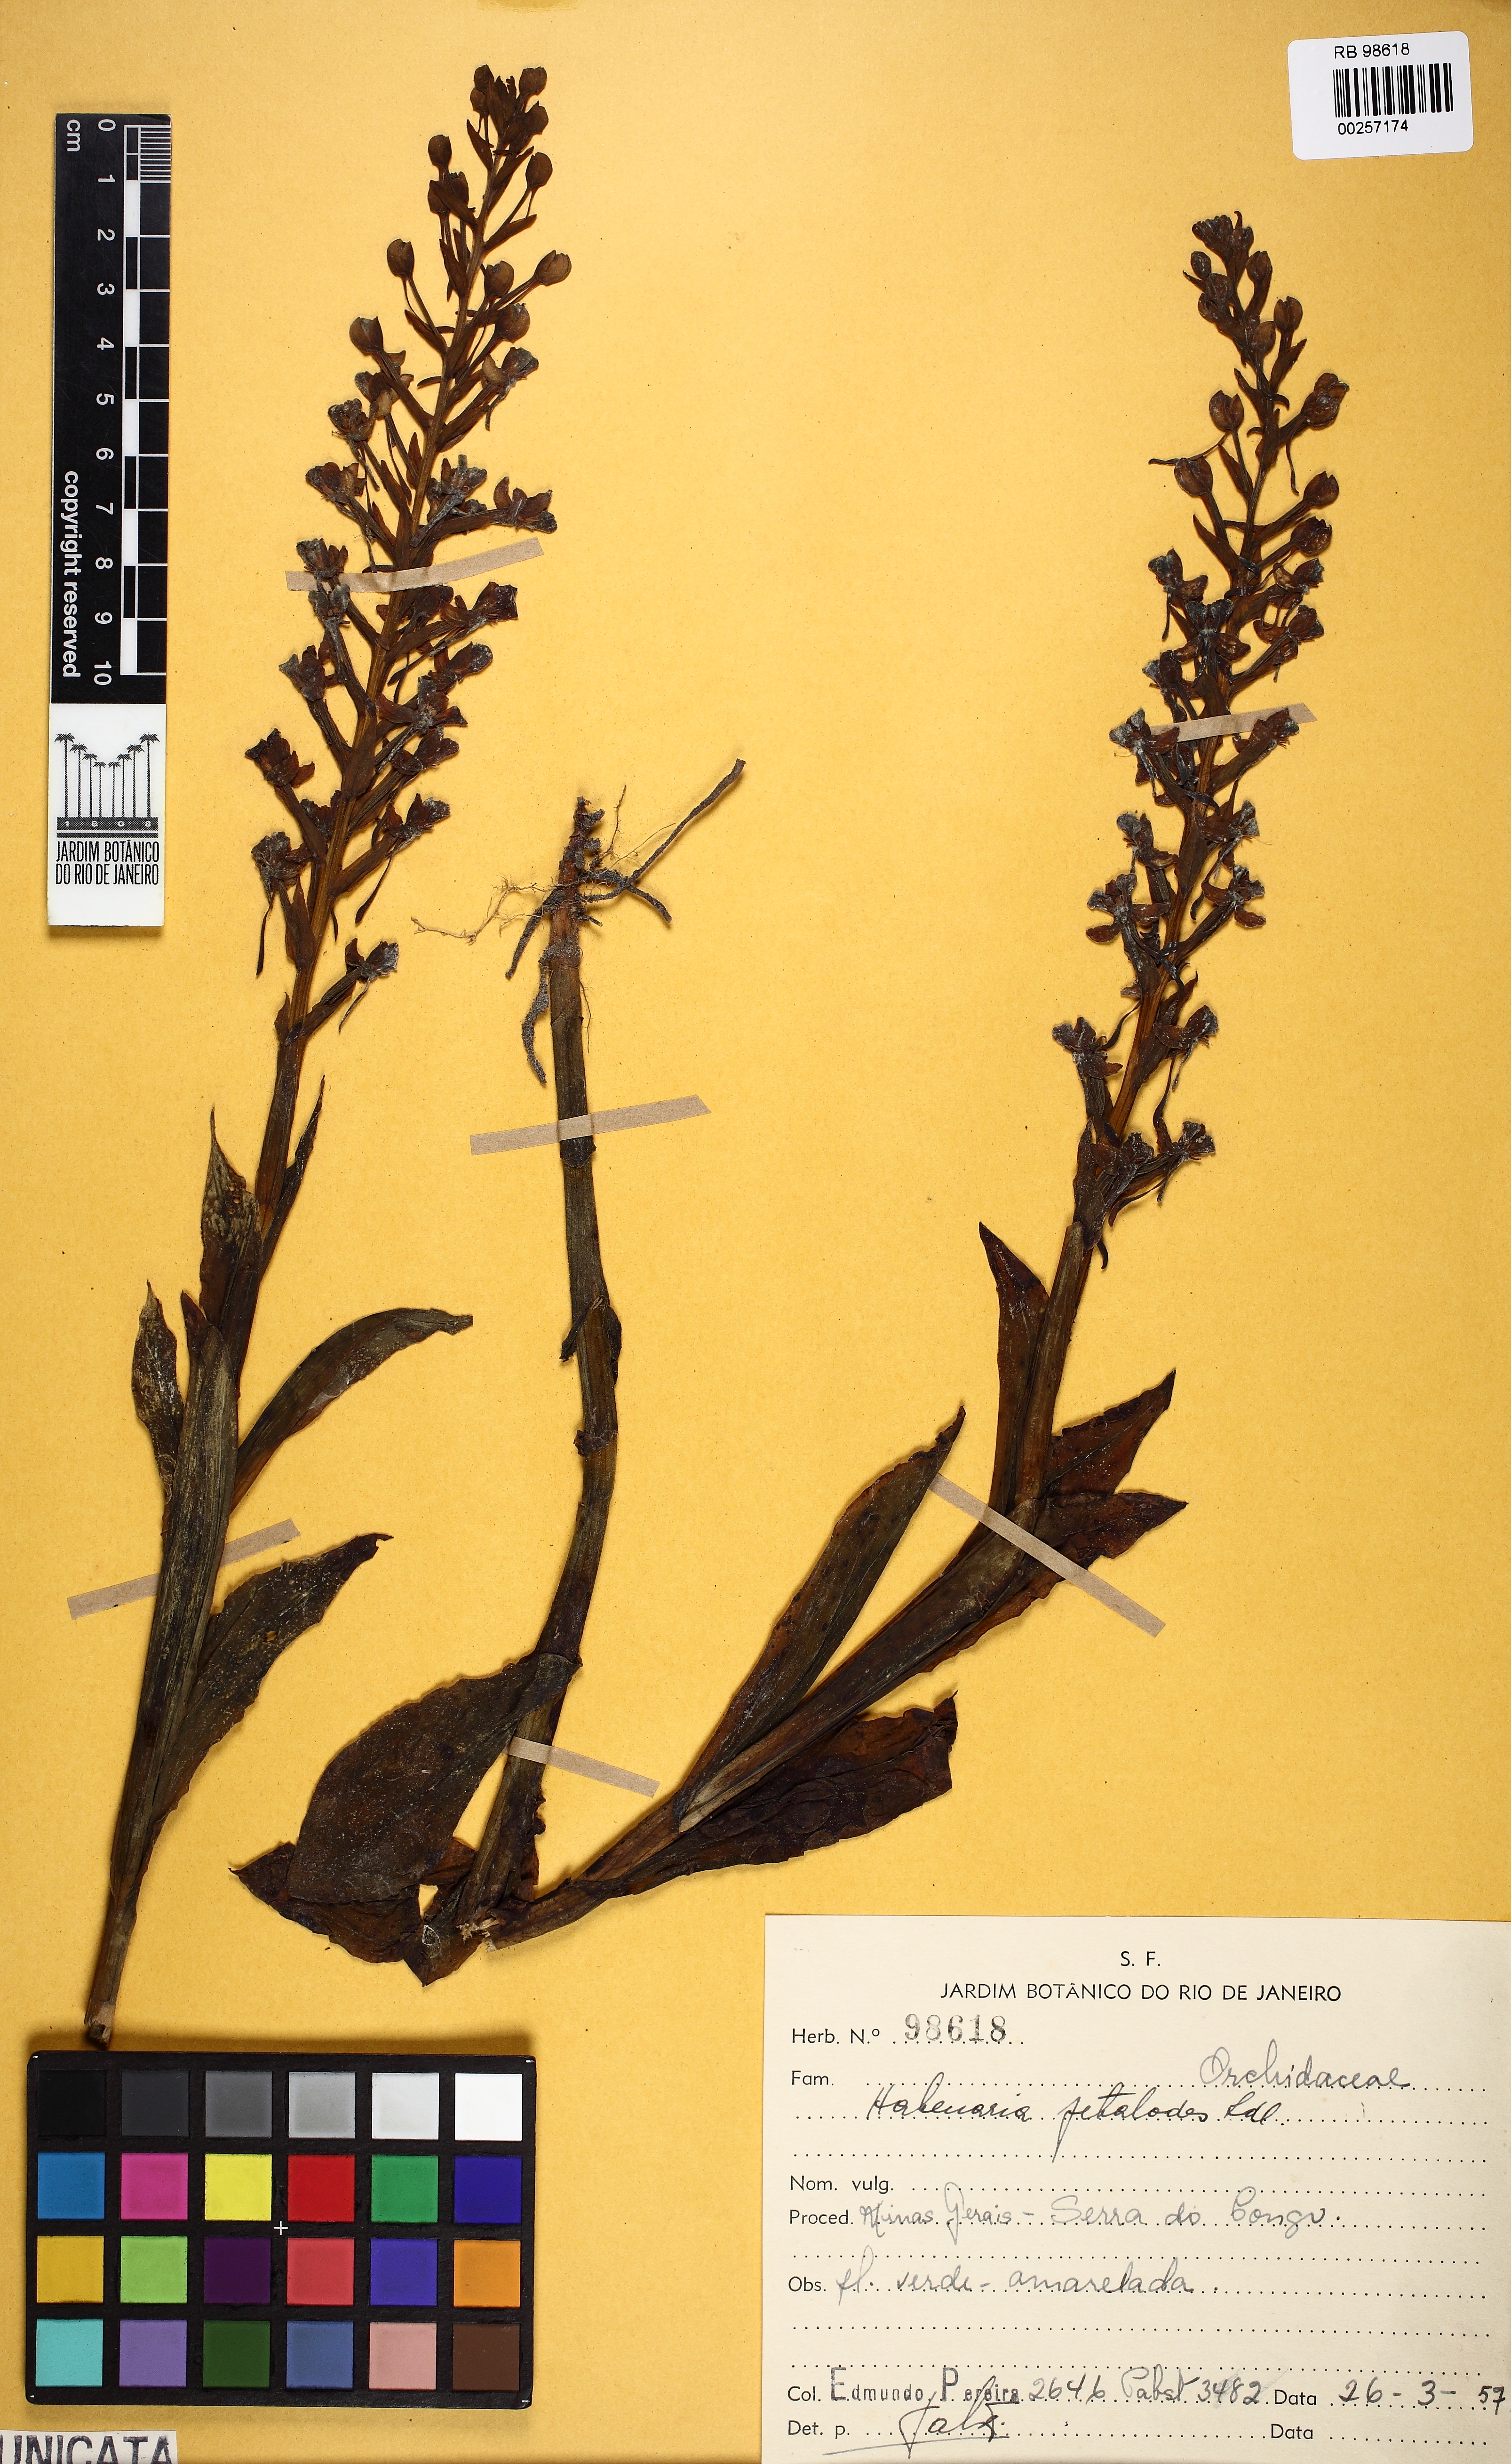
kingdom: Plantae
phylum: Tracheophyta
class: Liliopsida
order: Asparagales
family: Orchidaceae
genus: Habenaria
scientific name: Habenaria petalodes
